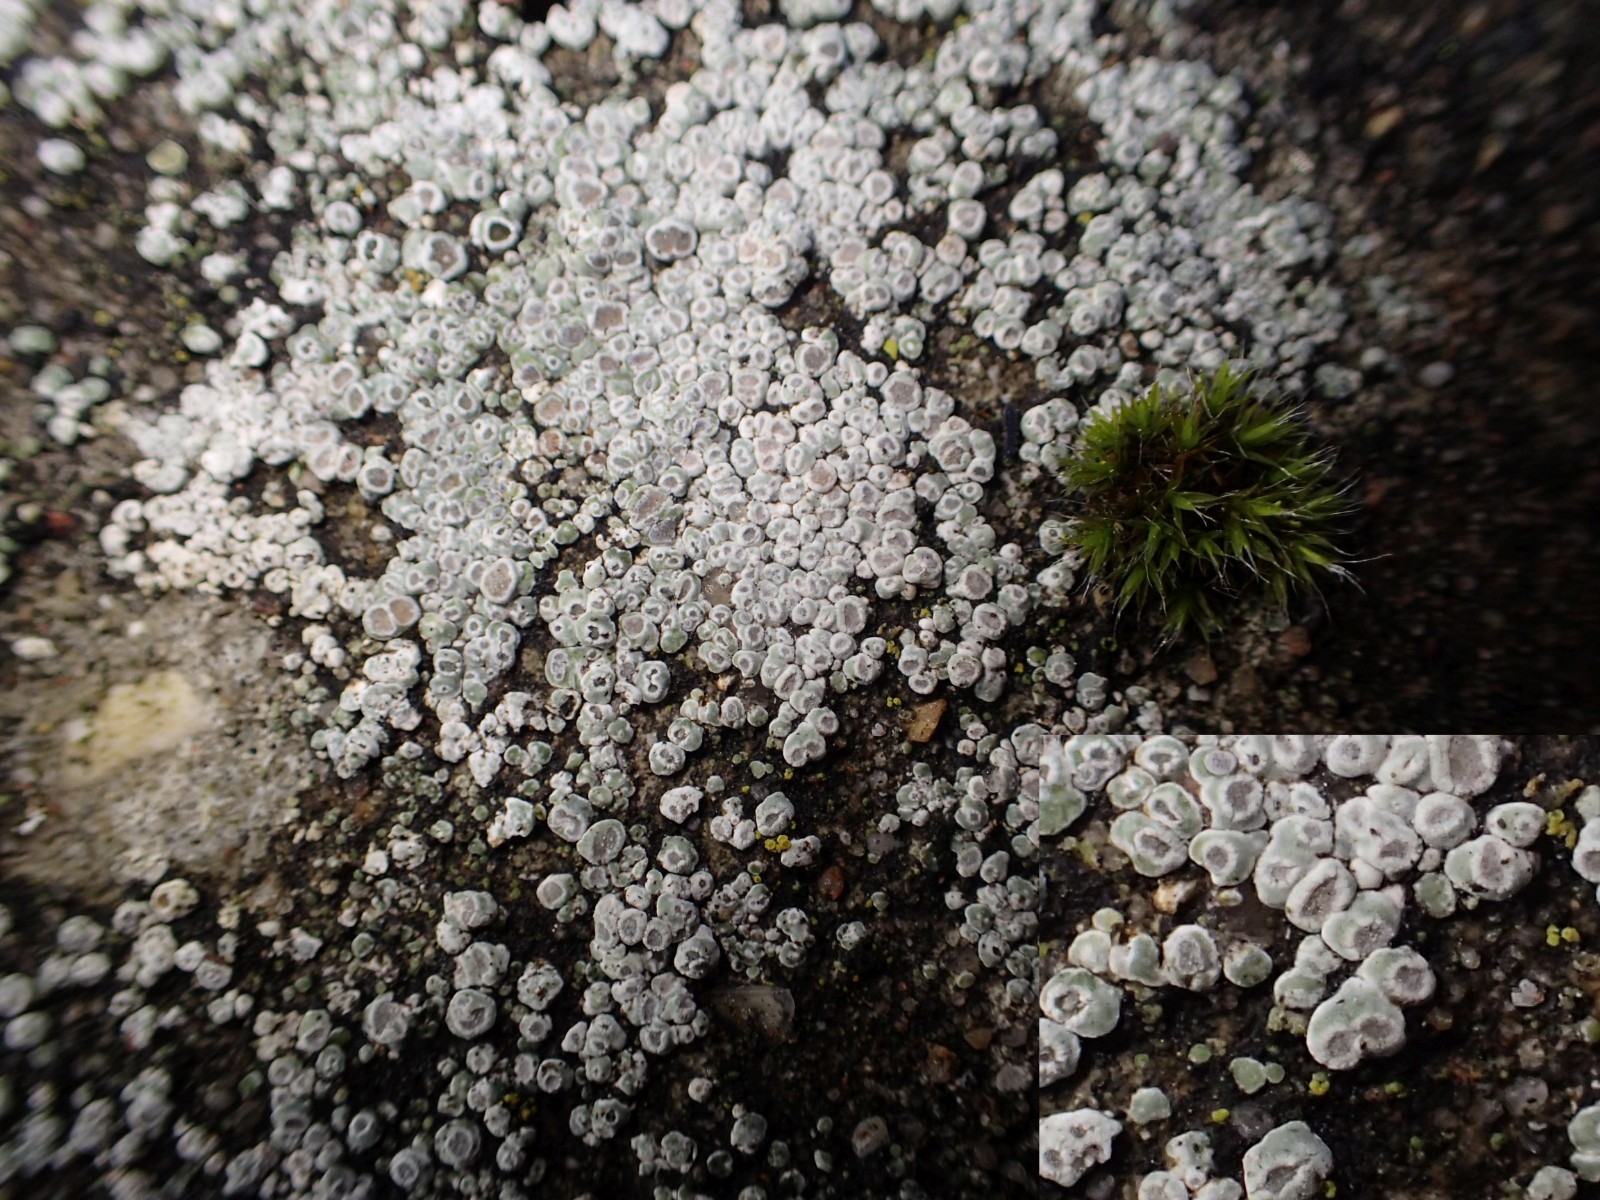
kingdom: Fungi
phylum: Ascomycota
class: Lecanoromycetes
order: Pertusariales
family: Megasporaceae
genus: Circinaria
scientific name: Circinaria contorta
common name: indviklet hulskivelav
